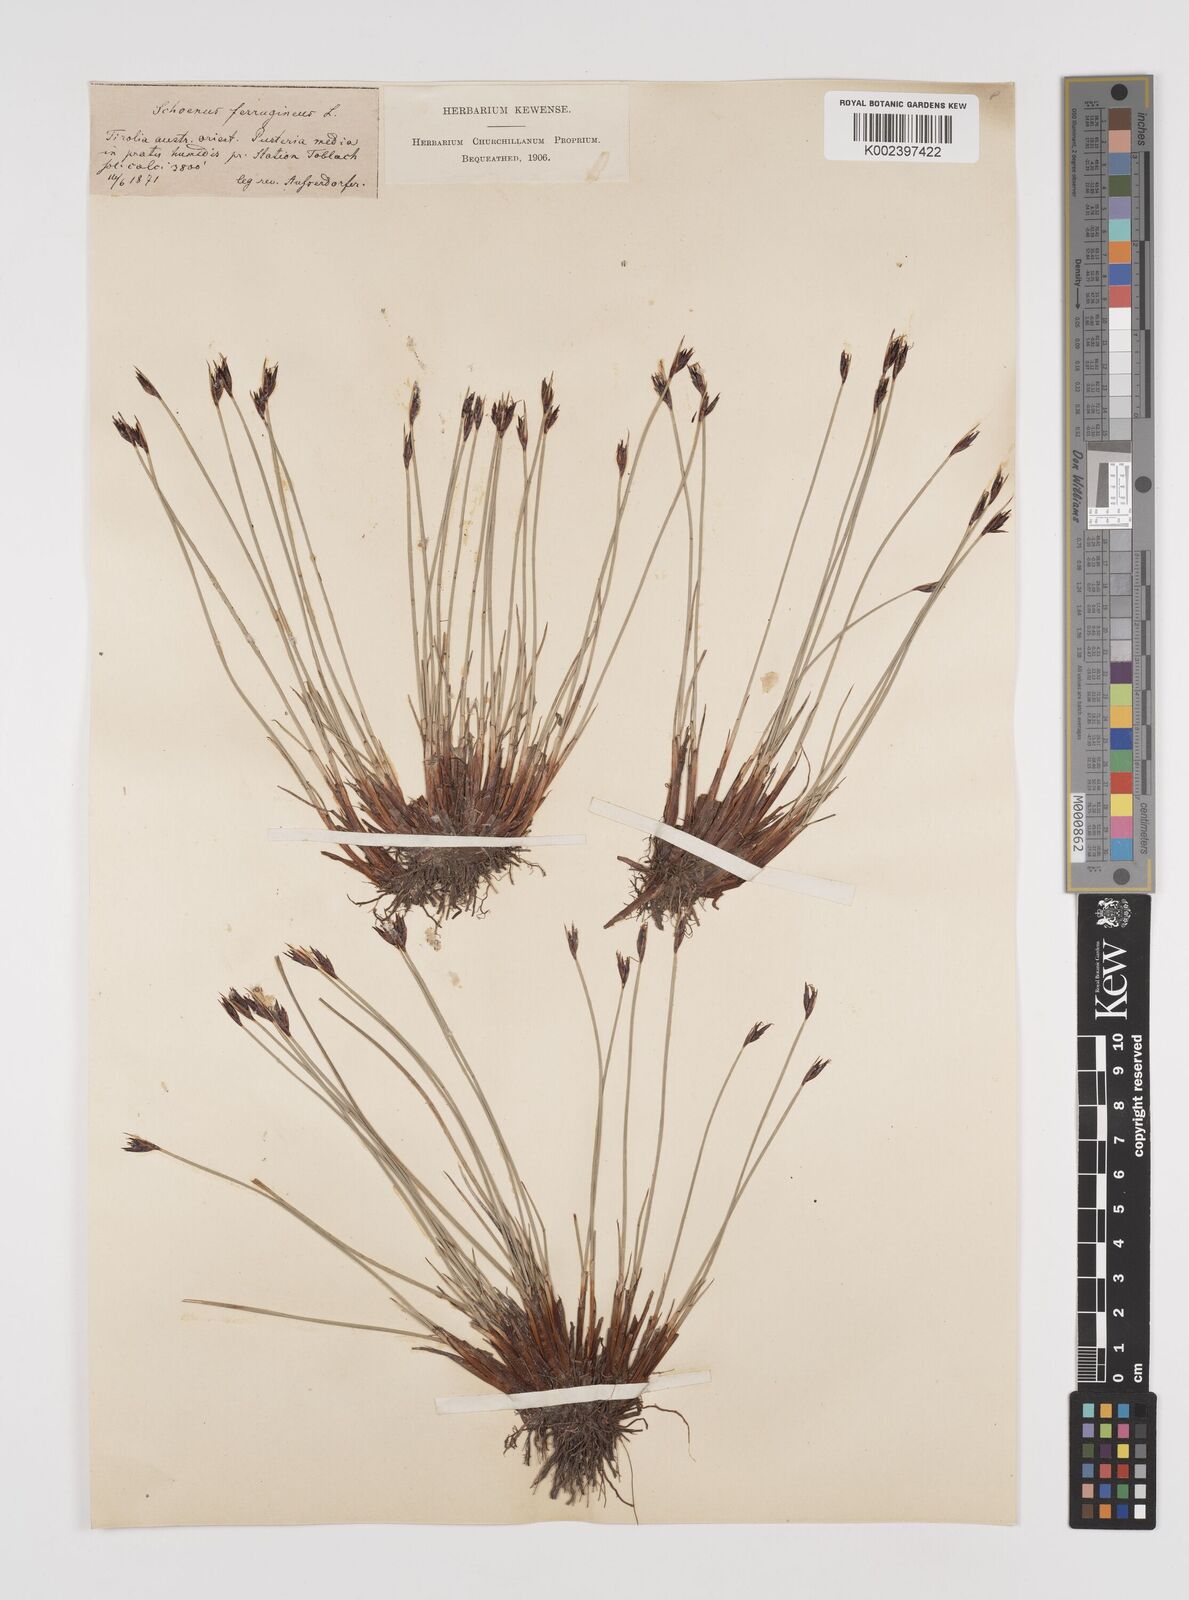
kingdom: Plantae
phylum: Tracheophyta
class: Liliopsida
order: Poales
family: Cyperaceae
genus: Schoenus
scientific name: Schoenus ferrugineus
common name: Brown bog-rush
